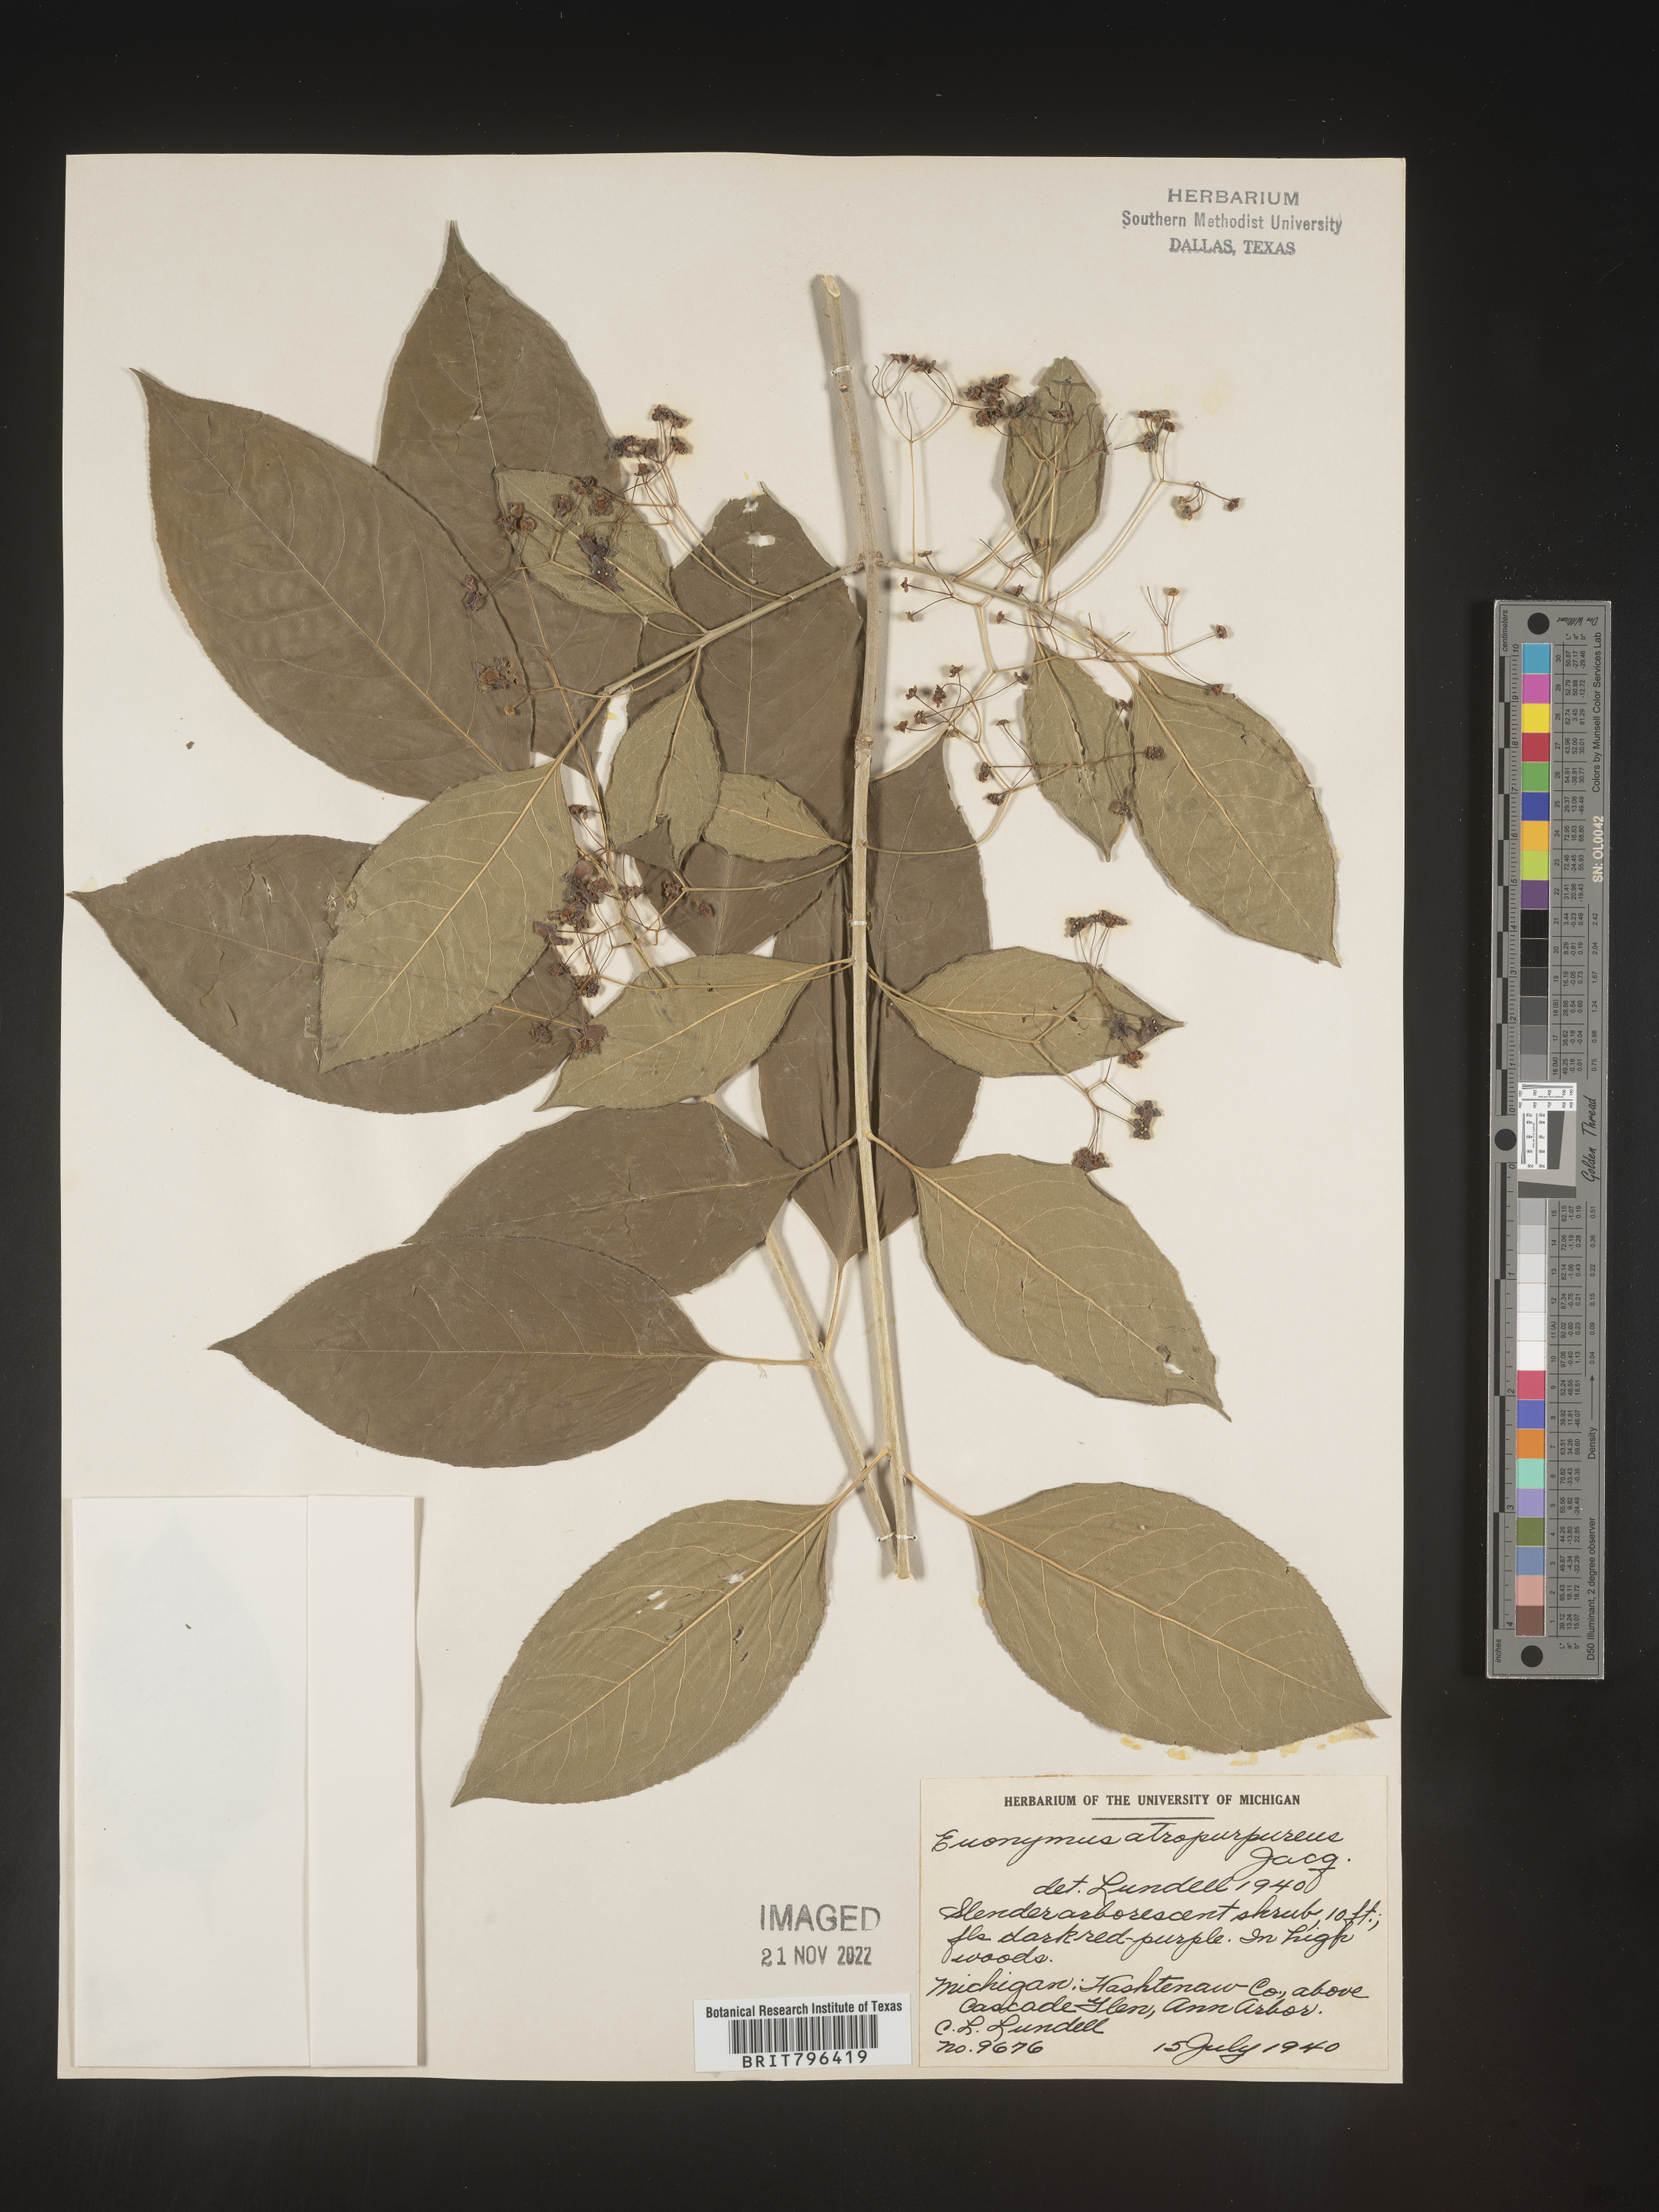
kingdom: Plantae
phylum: Tracheophyta
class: Magnoliopsida
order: Celastrales
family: Celastraceae
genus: Euonymus
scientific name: Euonymus atropurpureus
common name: Eastern wahoo
